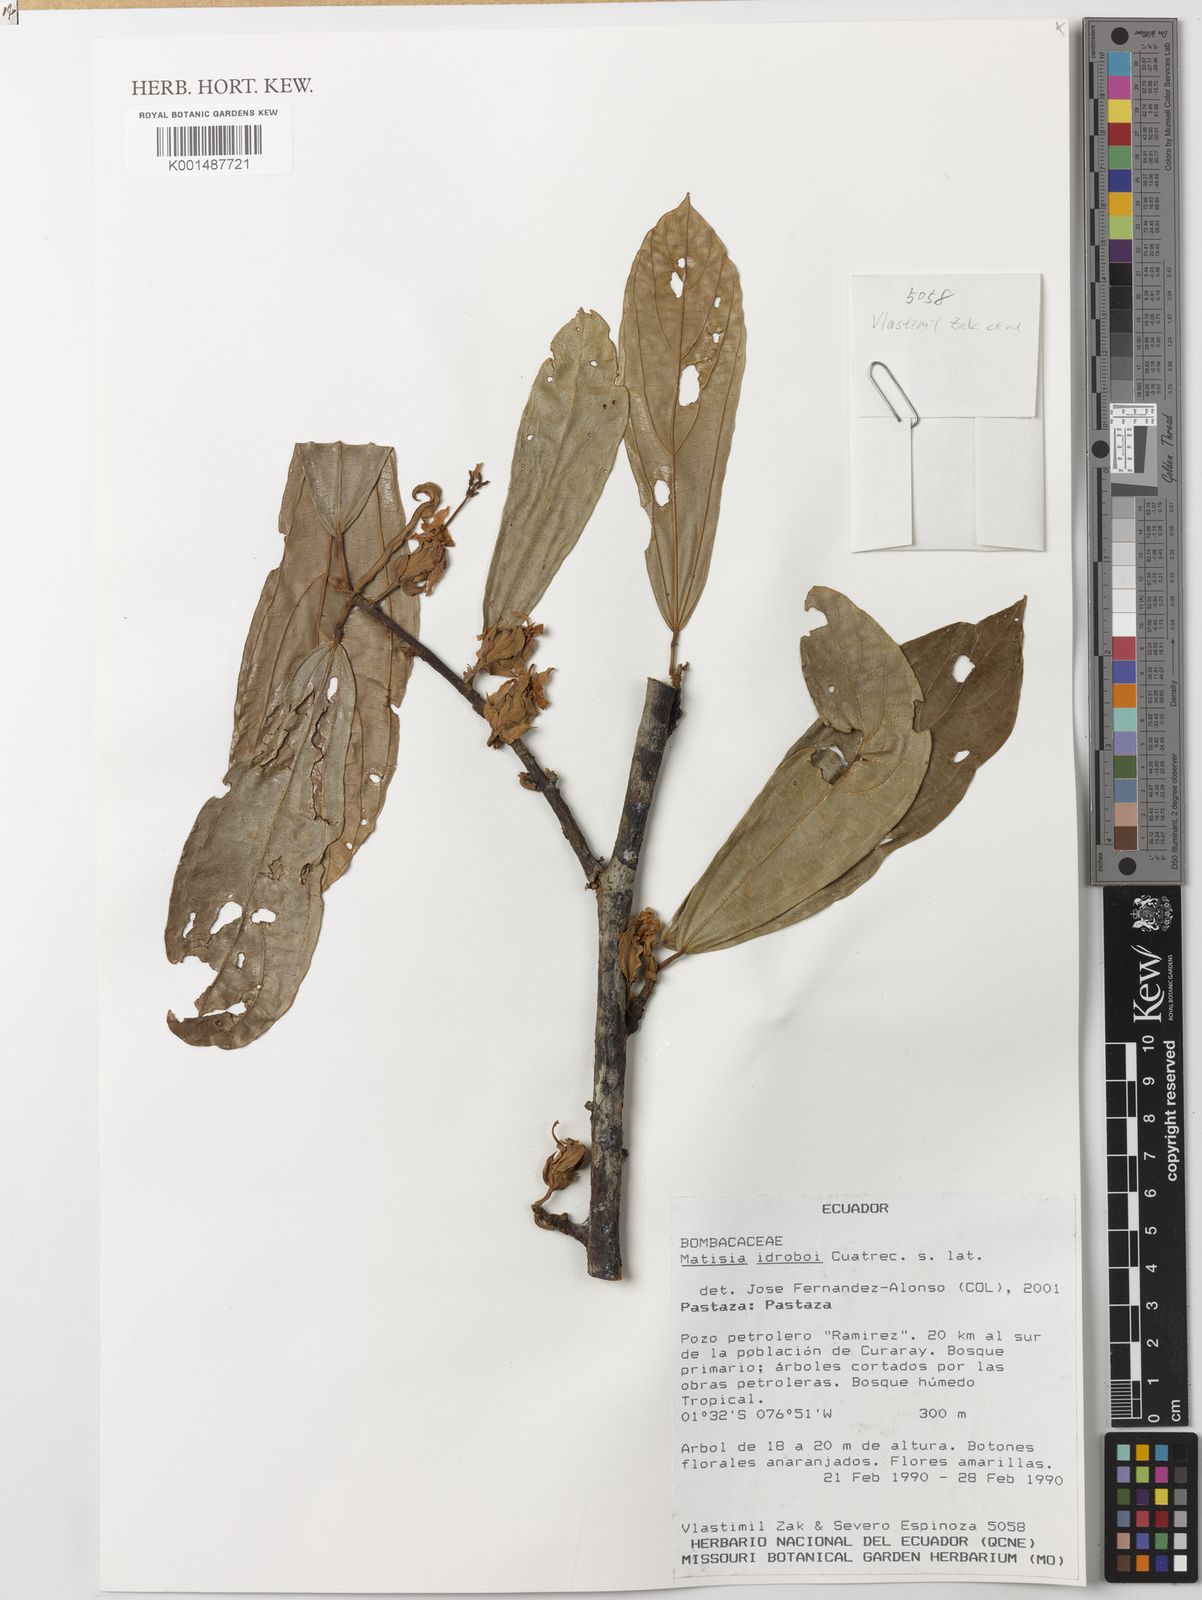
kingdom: Plantae
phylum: Tracheophyta
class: Magnoliopsida
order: Malvales
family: Malvaceae
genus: Matisia
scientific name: Matisia idroboi
